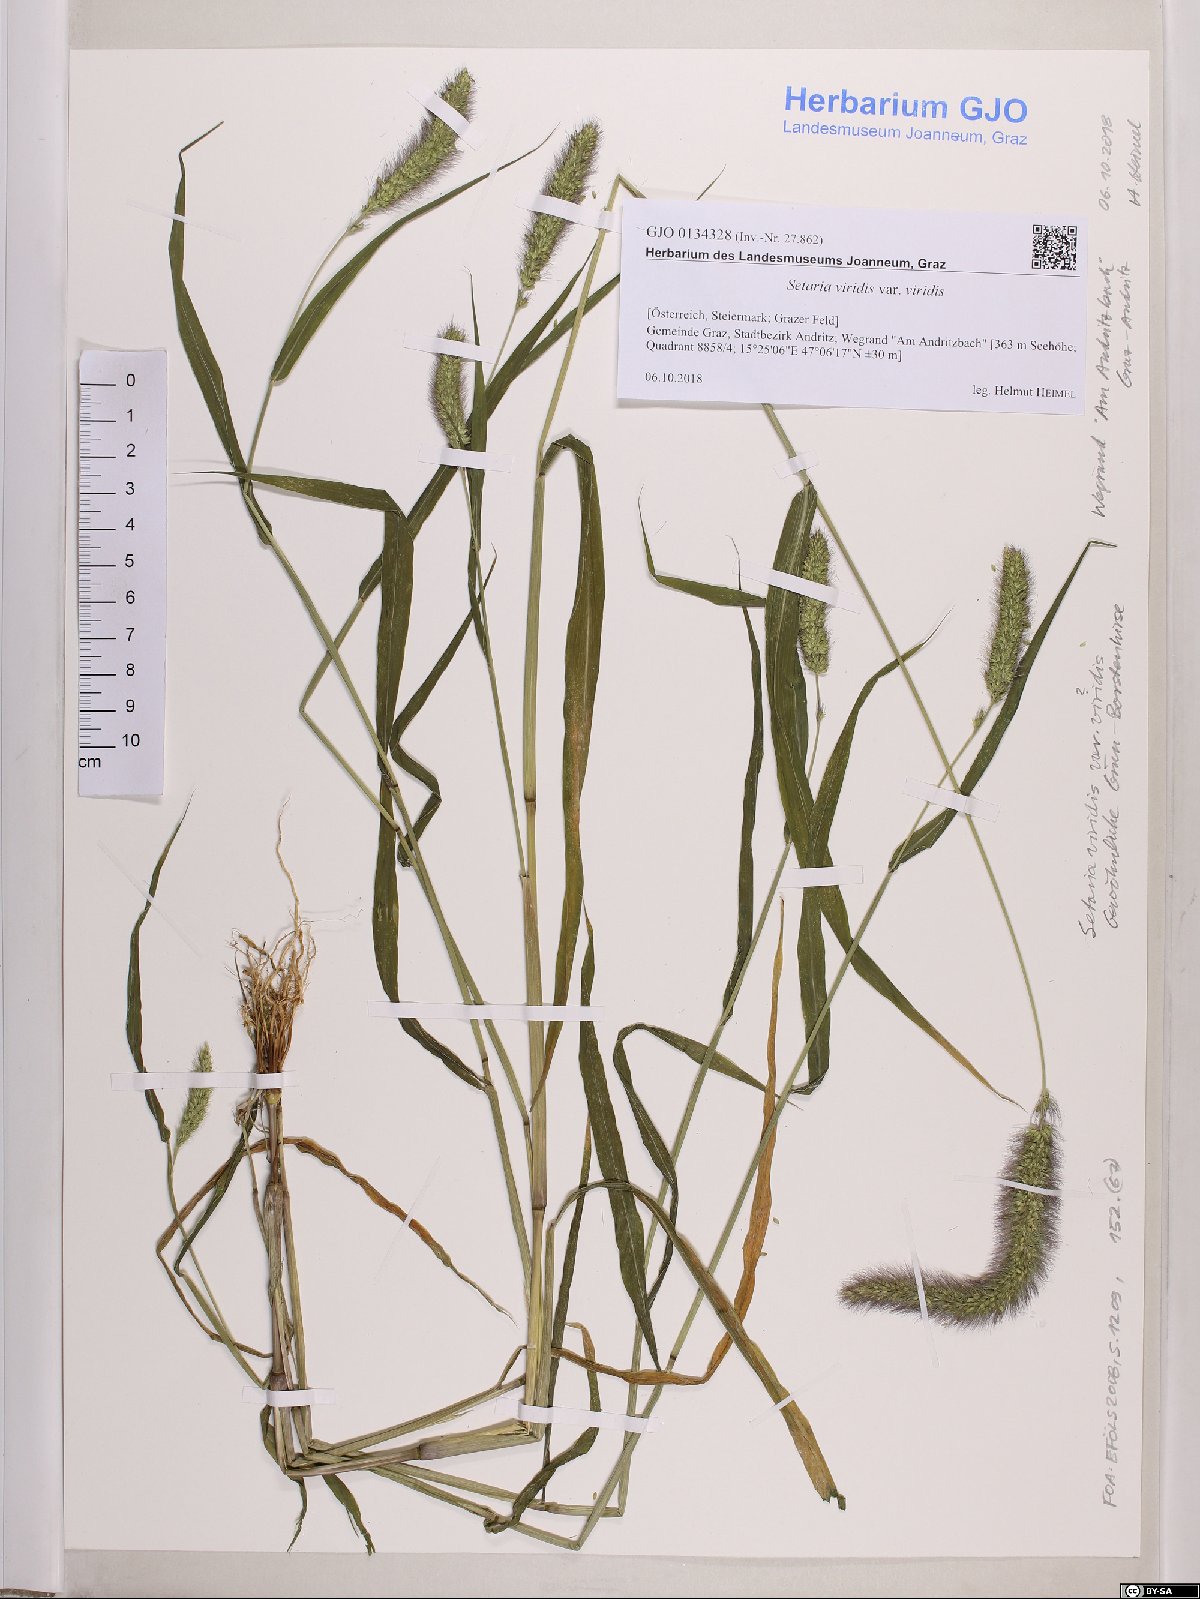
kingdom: Plantae
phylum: Tracheophyta
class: Liliopsida
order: Poales
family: Poaceae
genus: Setaria
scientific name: Setaria viridis
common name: Green bristlegrass
